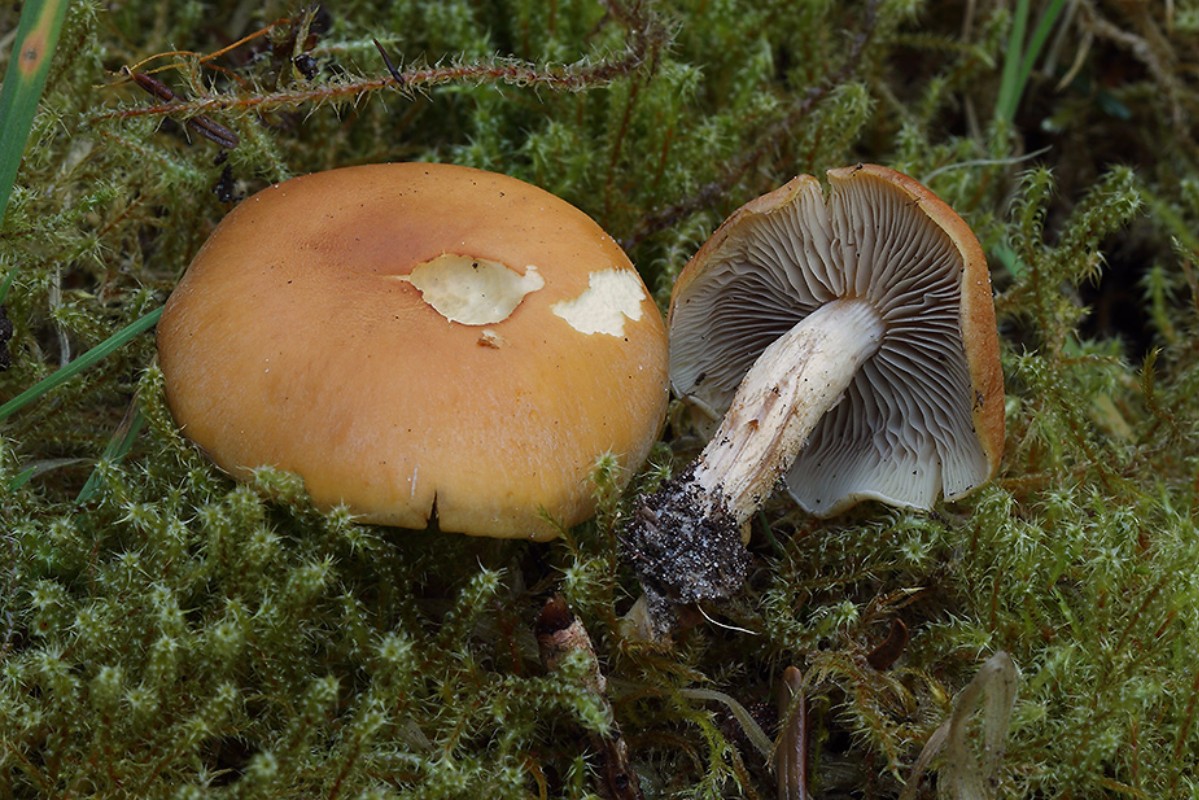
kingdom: Fungi
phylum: Basidiomycota
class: Agaricomycetes
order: Agaricales
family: Strophariaceae
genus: Hypholoma
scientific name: Hypholoma capnoides
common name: gran-svovlhat
